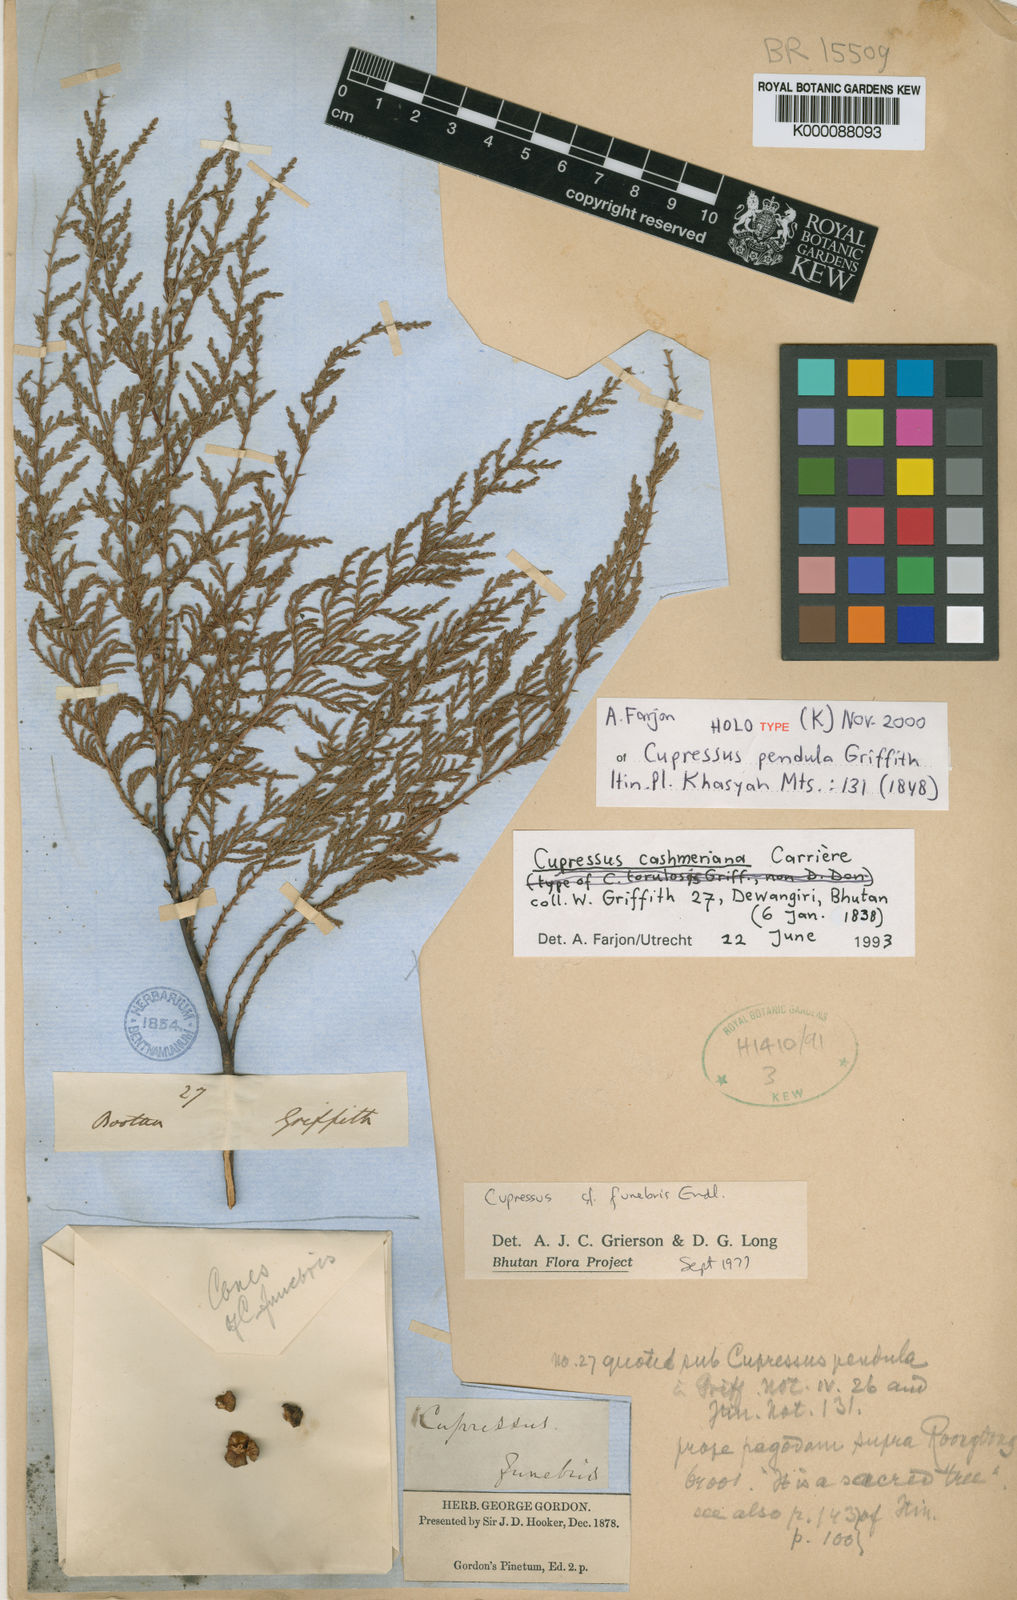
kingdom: Plantae
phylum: Tracheophyta
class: Pinopsida
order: Pinales
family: Cupressaceae
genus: Cupressus
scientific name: Cupressus
